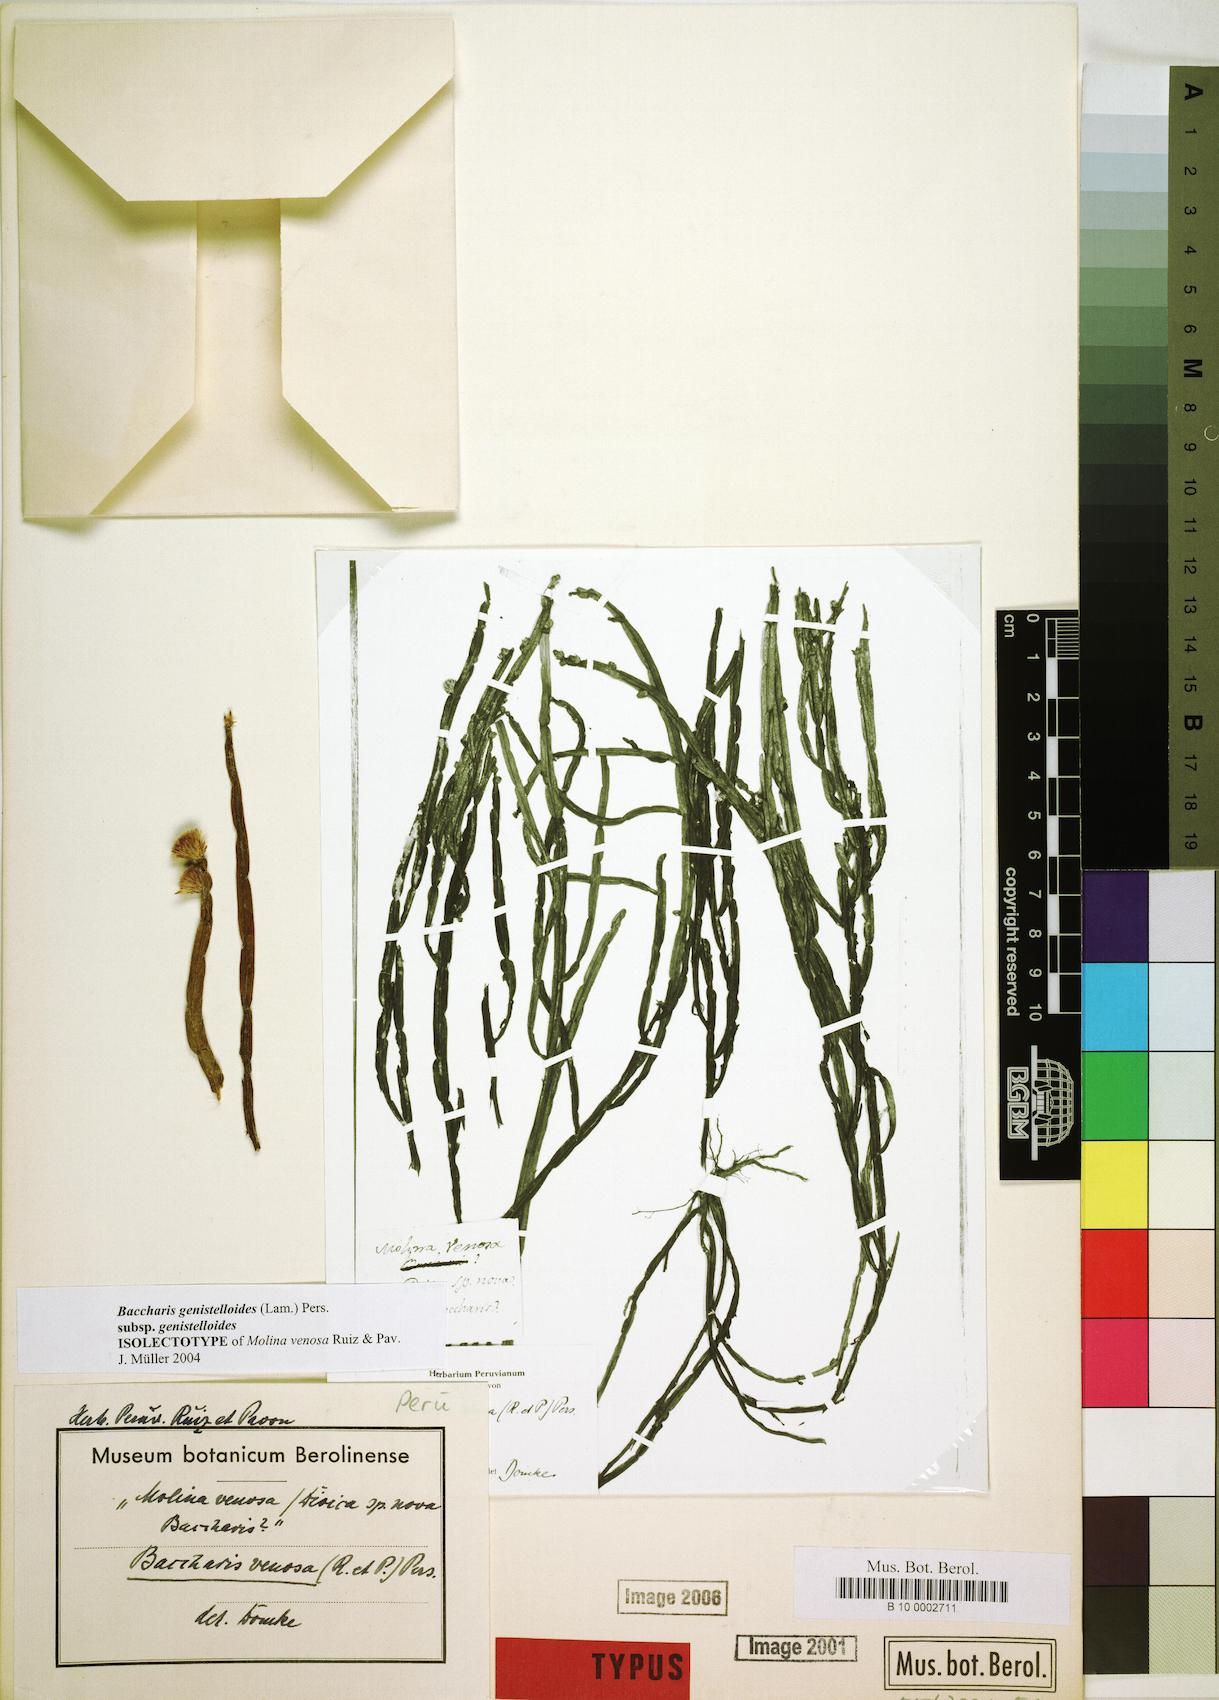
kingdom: Plantae
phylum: Tracheophyta
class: Magnoliopsida
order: Asterales
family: Asteraceae
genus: Baccharis
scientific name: Baccharis genistelloides
